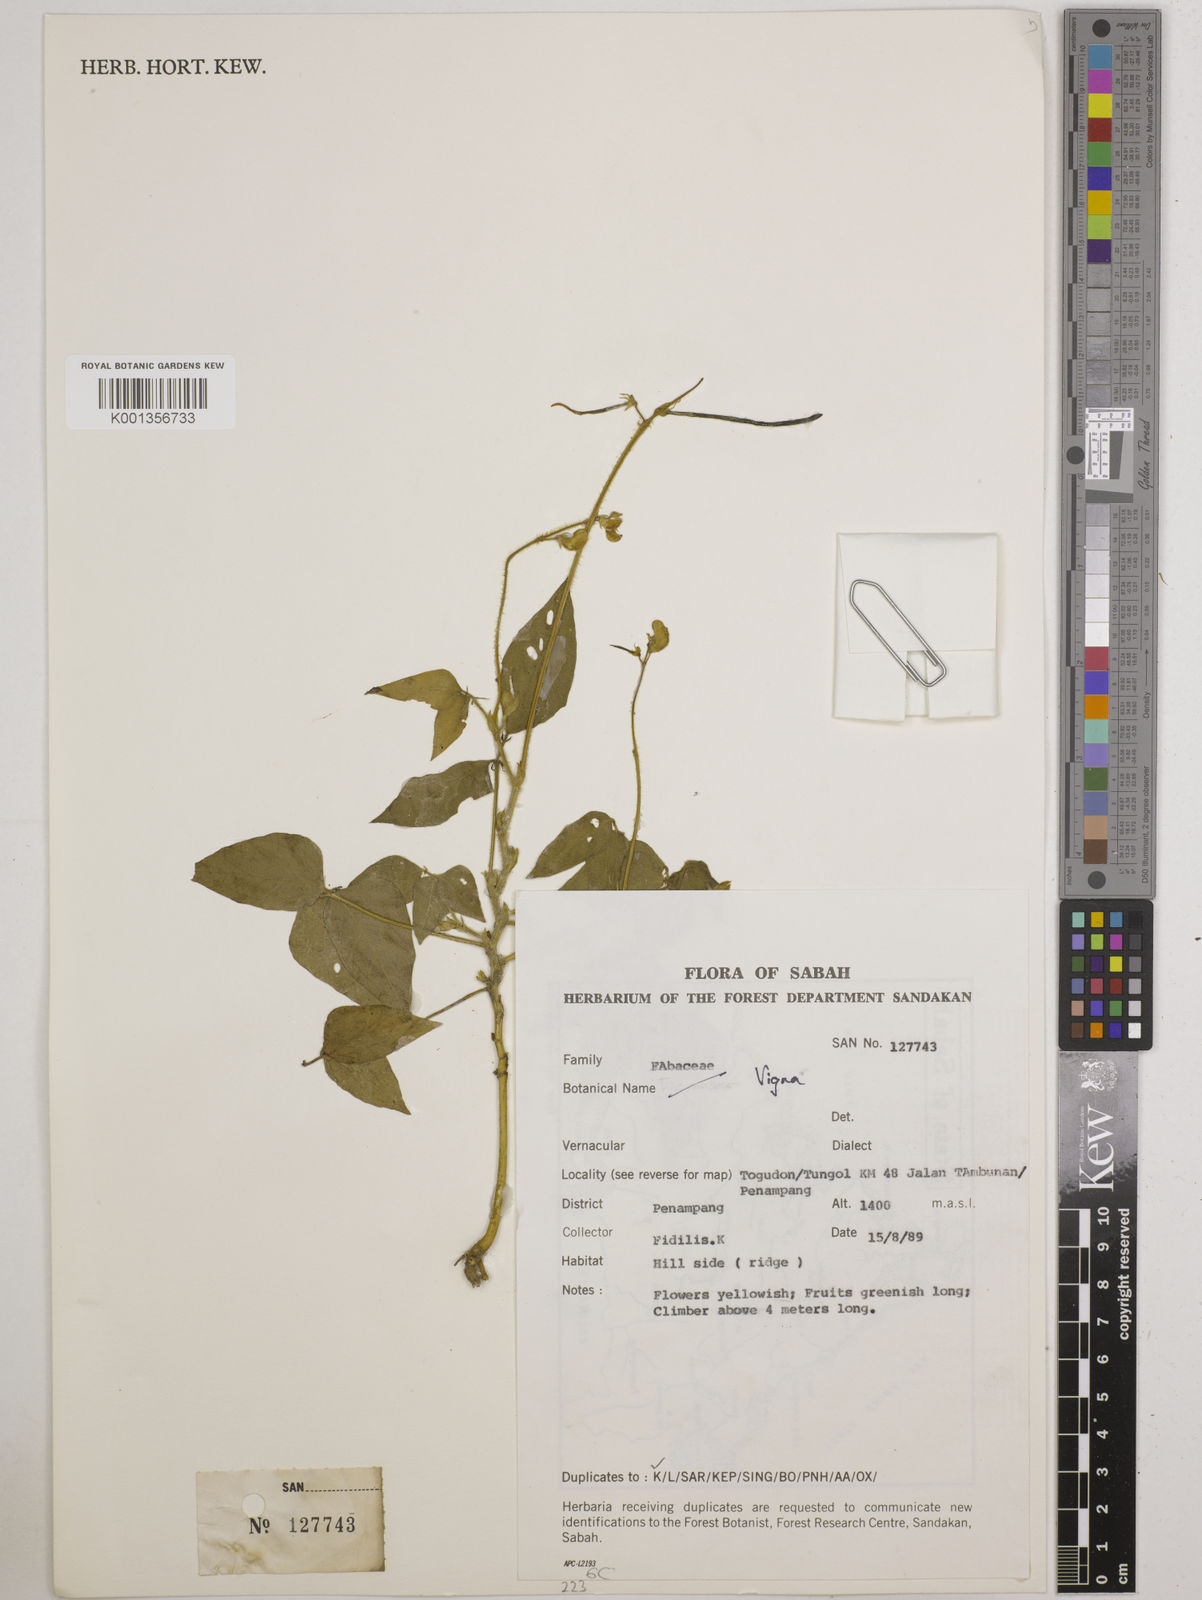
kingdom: Plantae
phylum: Tracheophyta
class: Magnoliopsida
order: Fabales
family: Fabaceae
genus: Vigna
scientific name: Vigna
